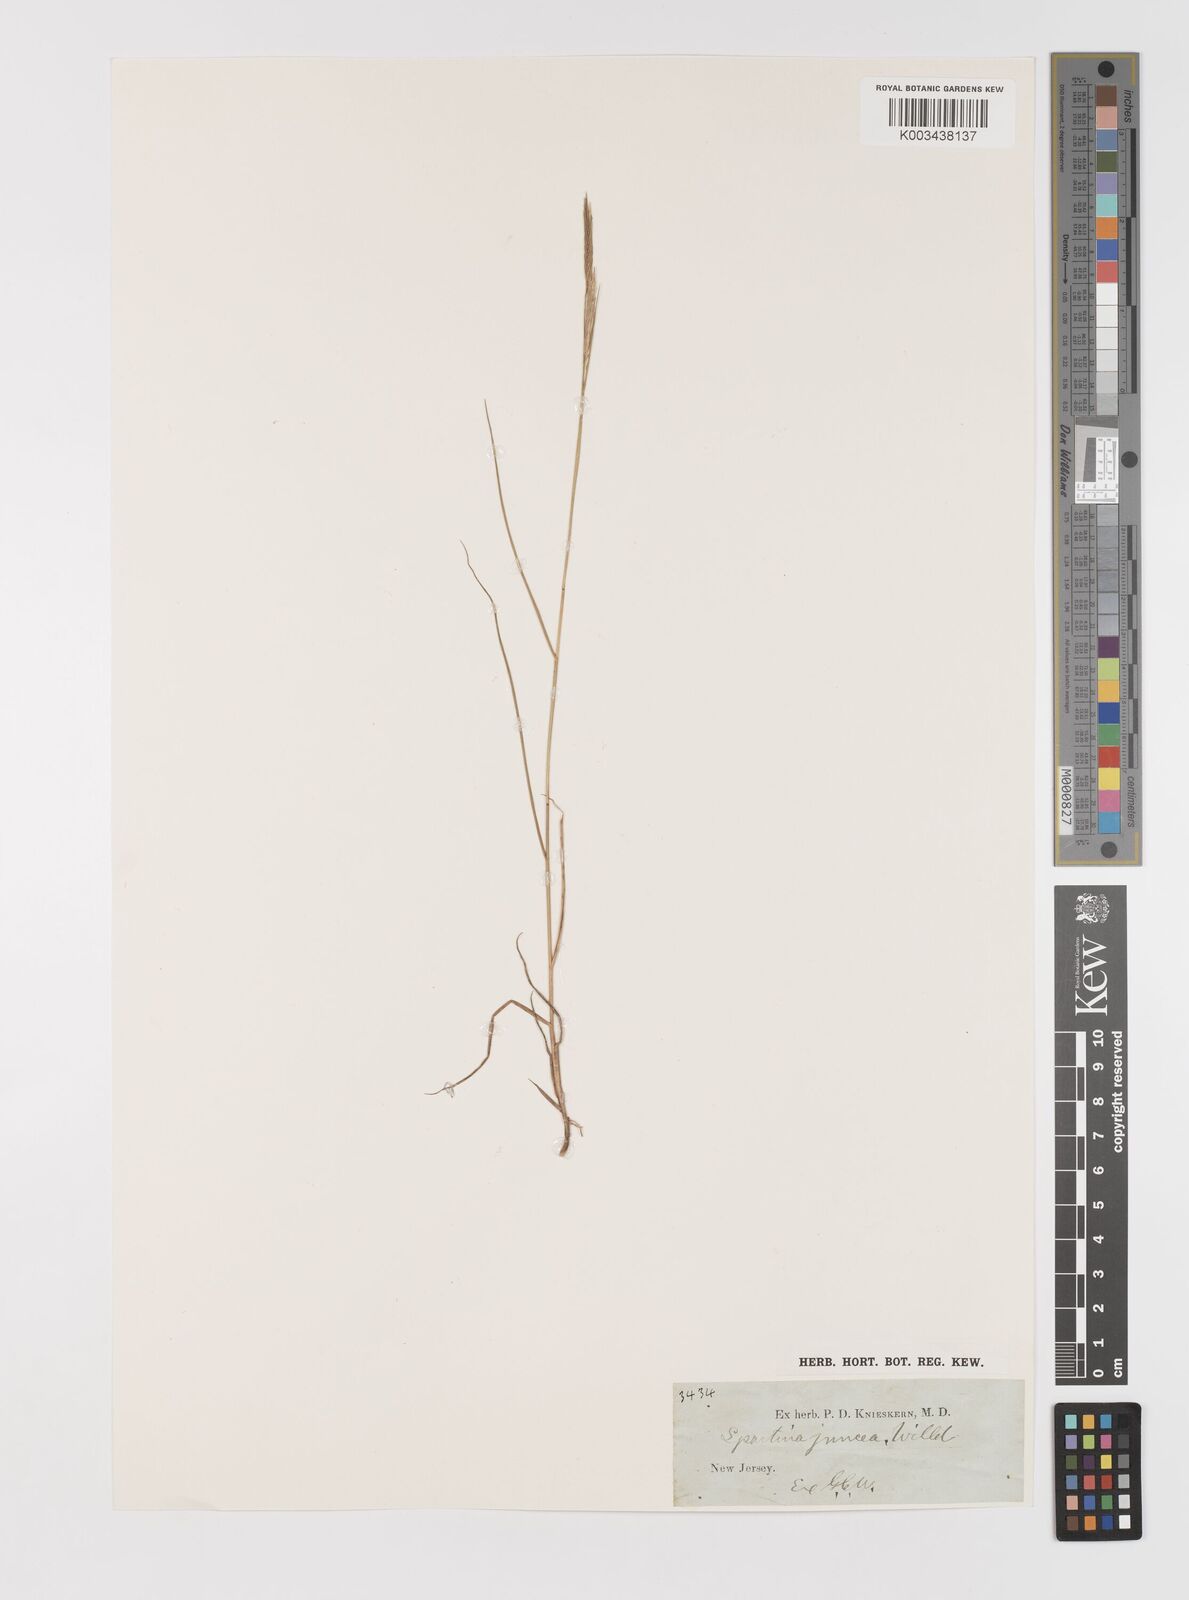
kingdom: Plantae
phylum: Tracheophyta
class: Liliopsida
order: Poales
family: Poaceae
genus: Sporobolus
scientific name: Sporobolus pumilus
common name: Highwater grass
